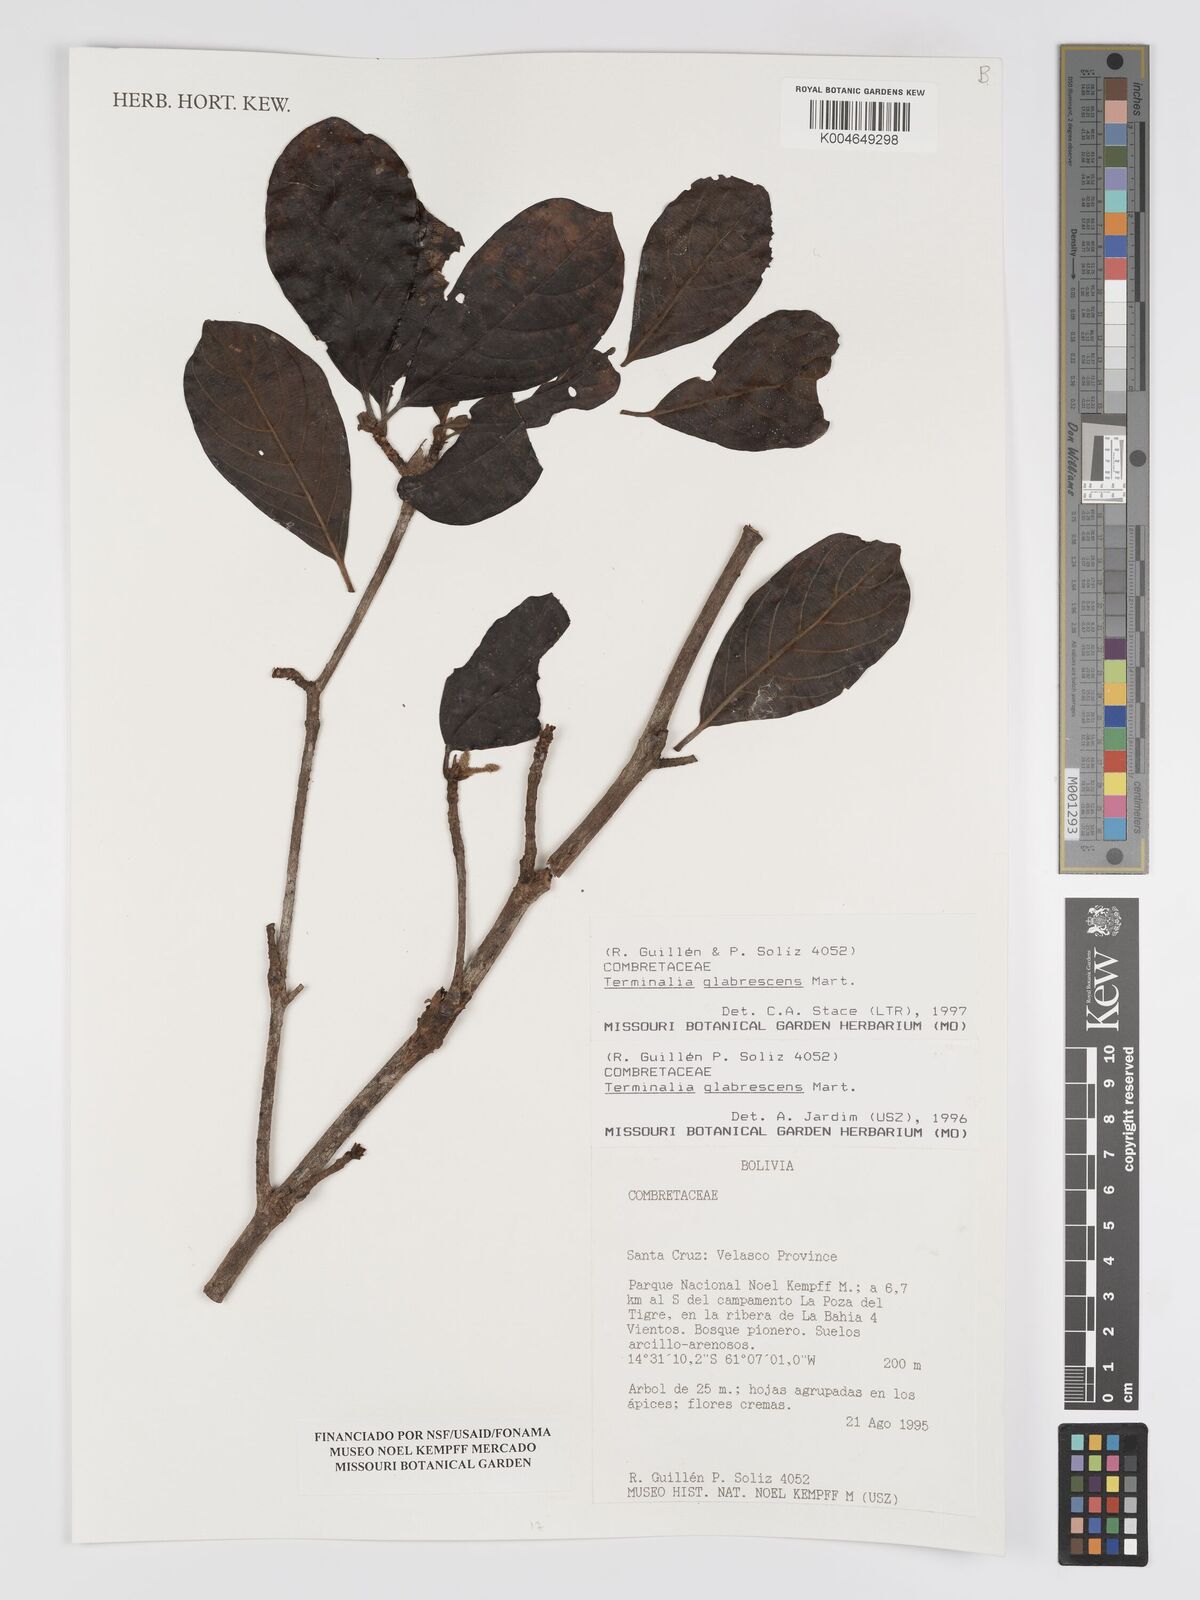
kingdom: Plantae
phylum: Tracheophyta
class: Magnoliopsida
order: Myrtales
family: Combretaceae
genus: Terminalia
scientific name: Terminalia glabrescens
